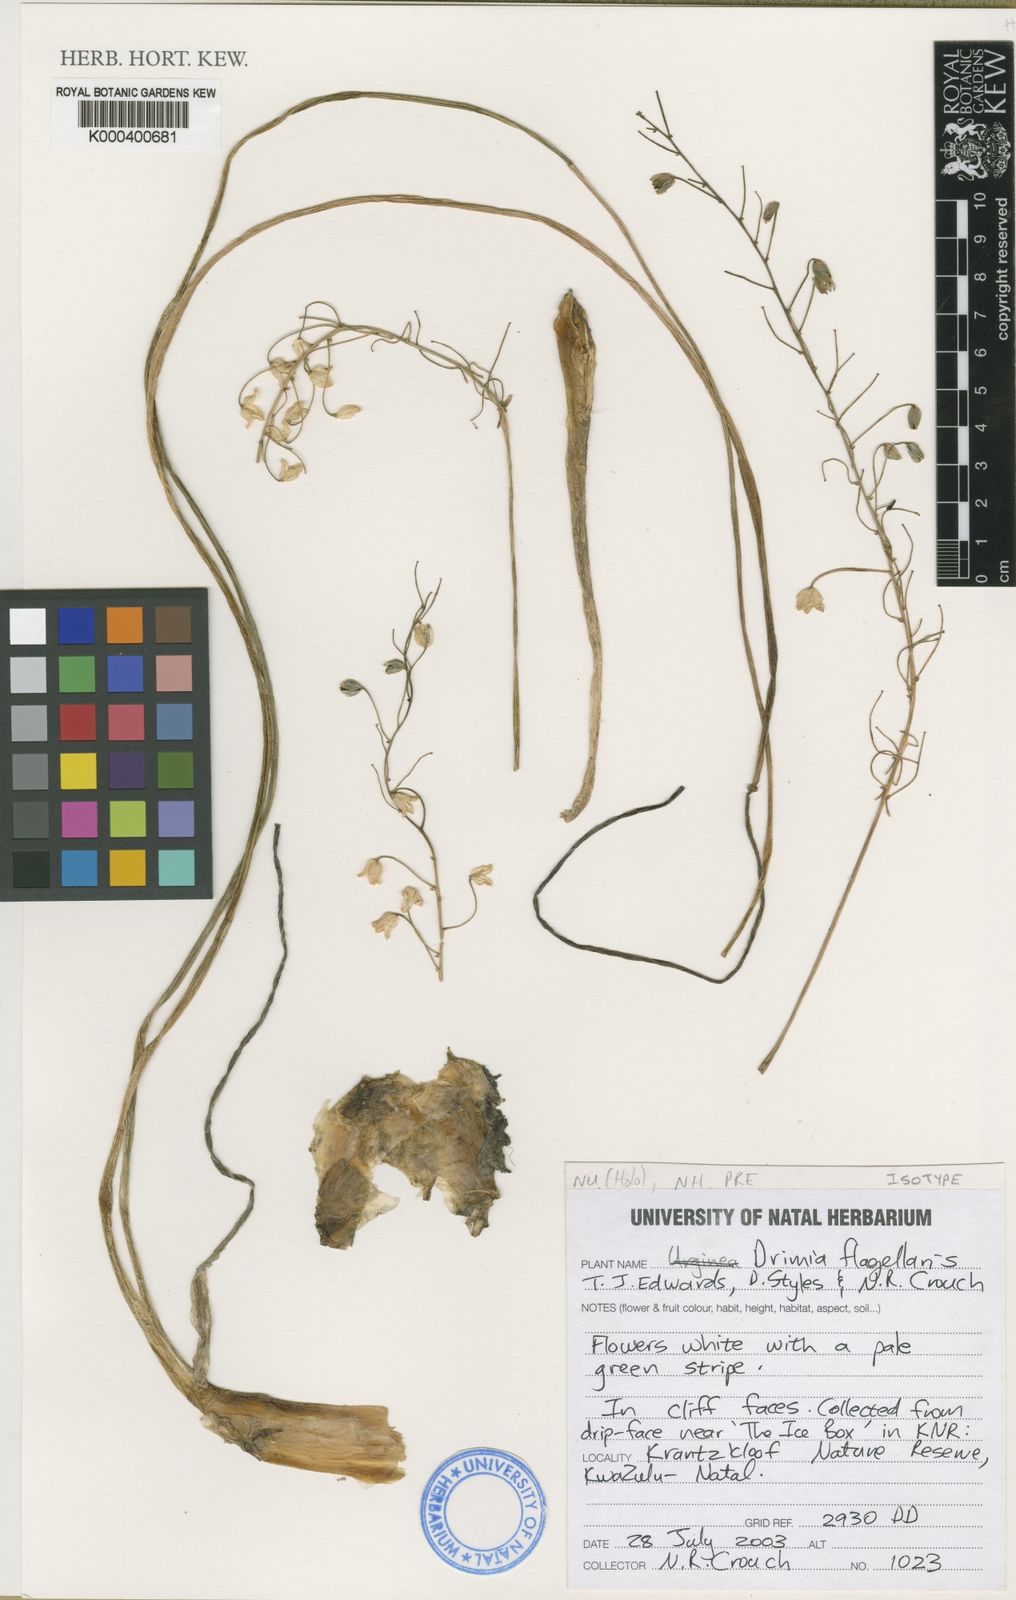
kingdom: Plantae
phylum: Tracheophyta
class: Liliopsida
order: Asparagales
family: Asparagaceae
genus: Drimia
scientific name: Drimia flagellaris
